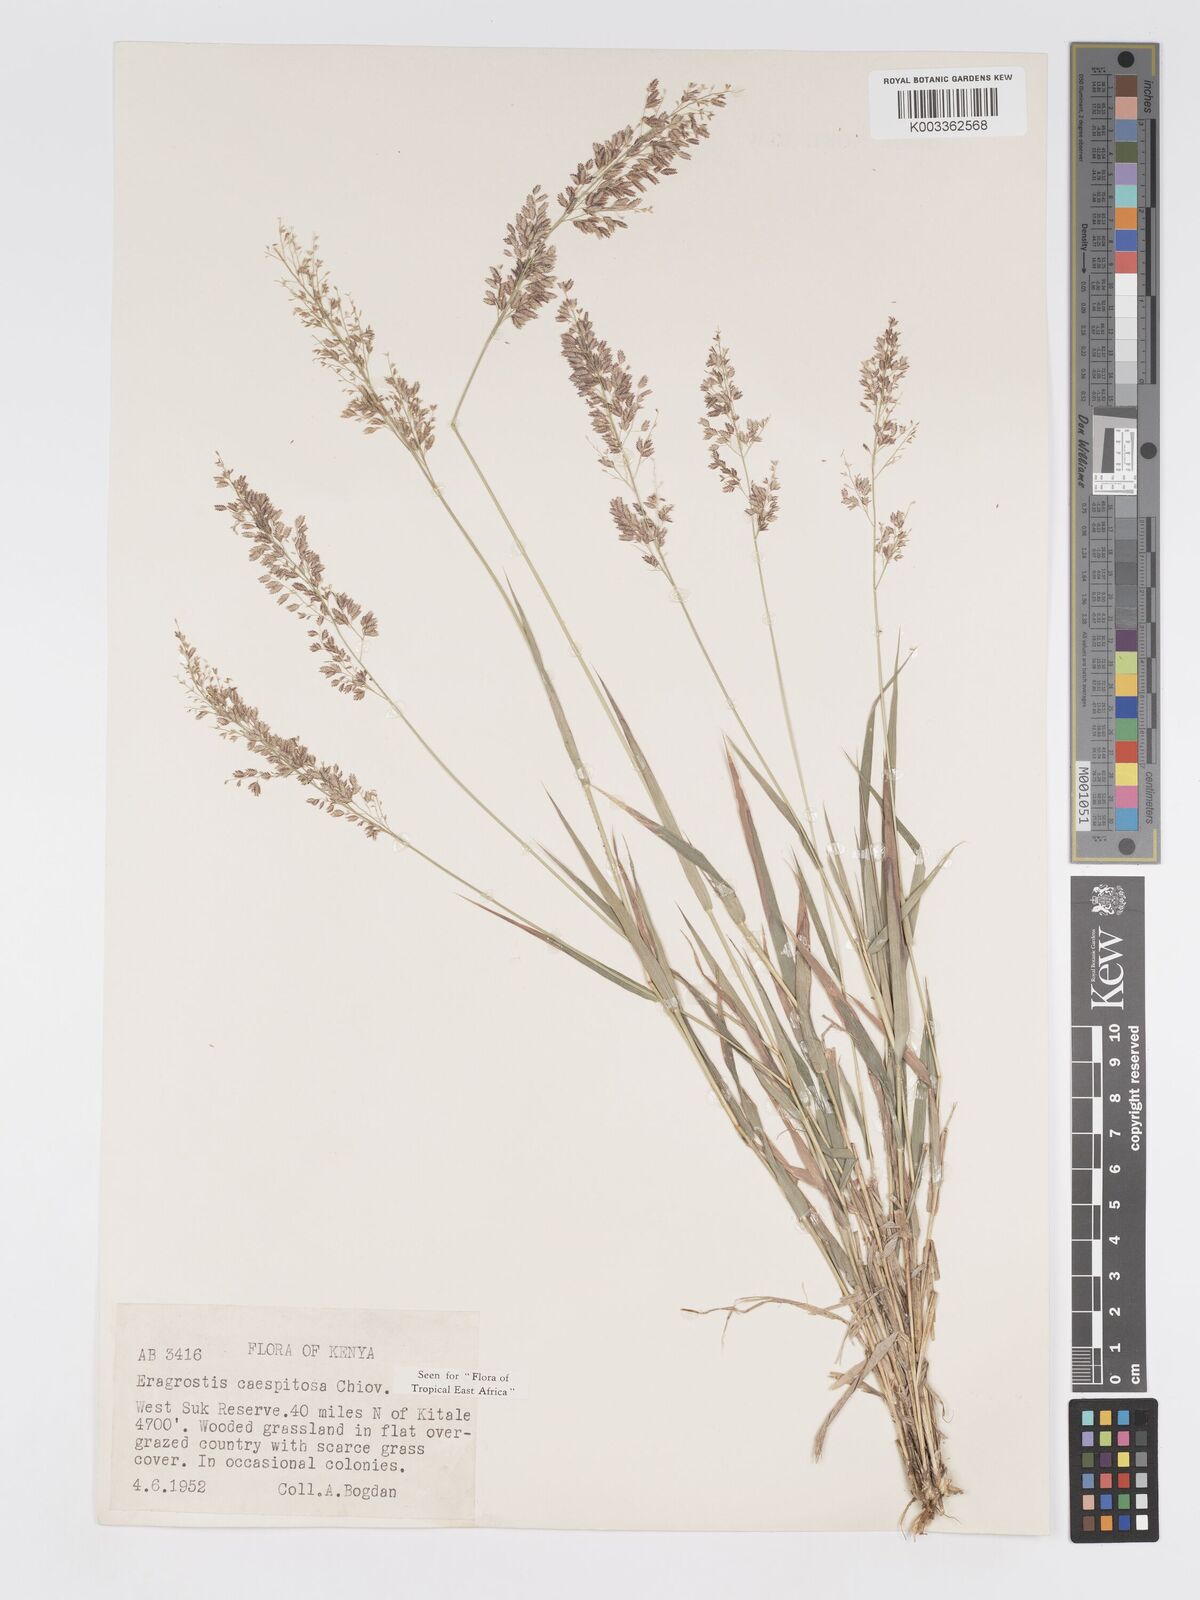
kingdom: Plantae
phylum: Tracheophyta
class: Liliopsida
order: Poales
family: Poaceae
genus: Eragrostis
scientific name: Eragrostis caespitosa
